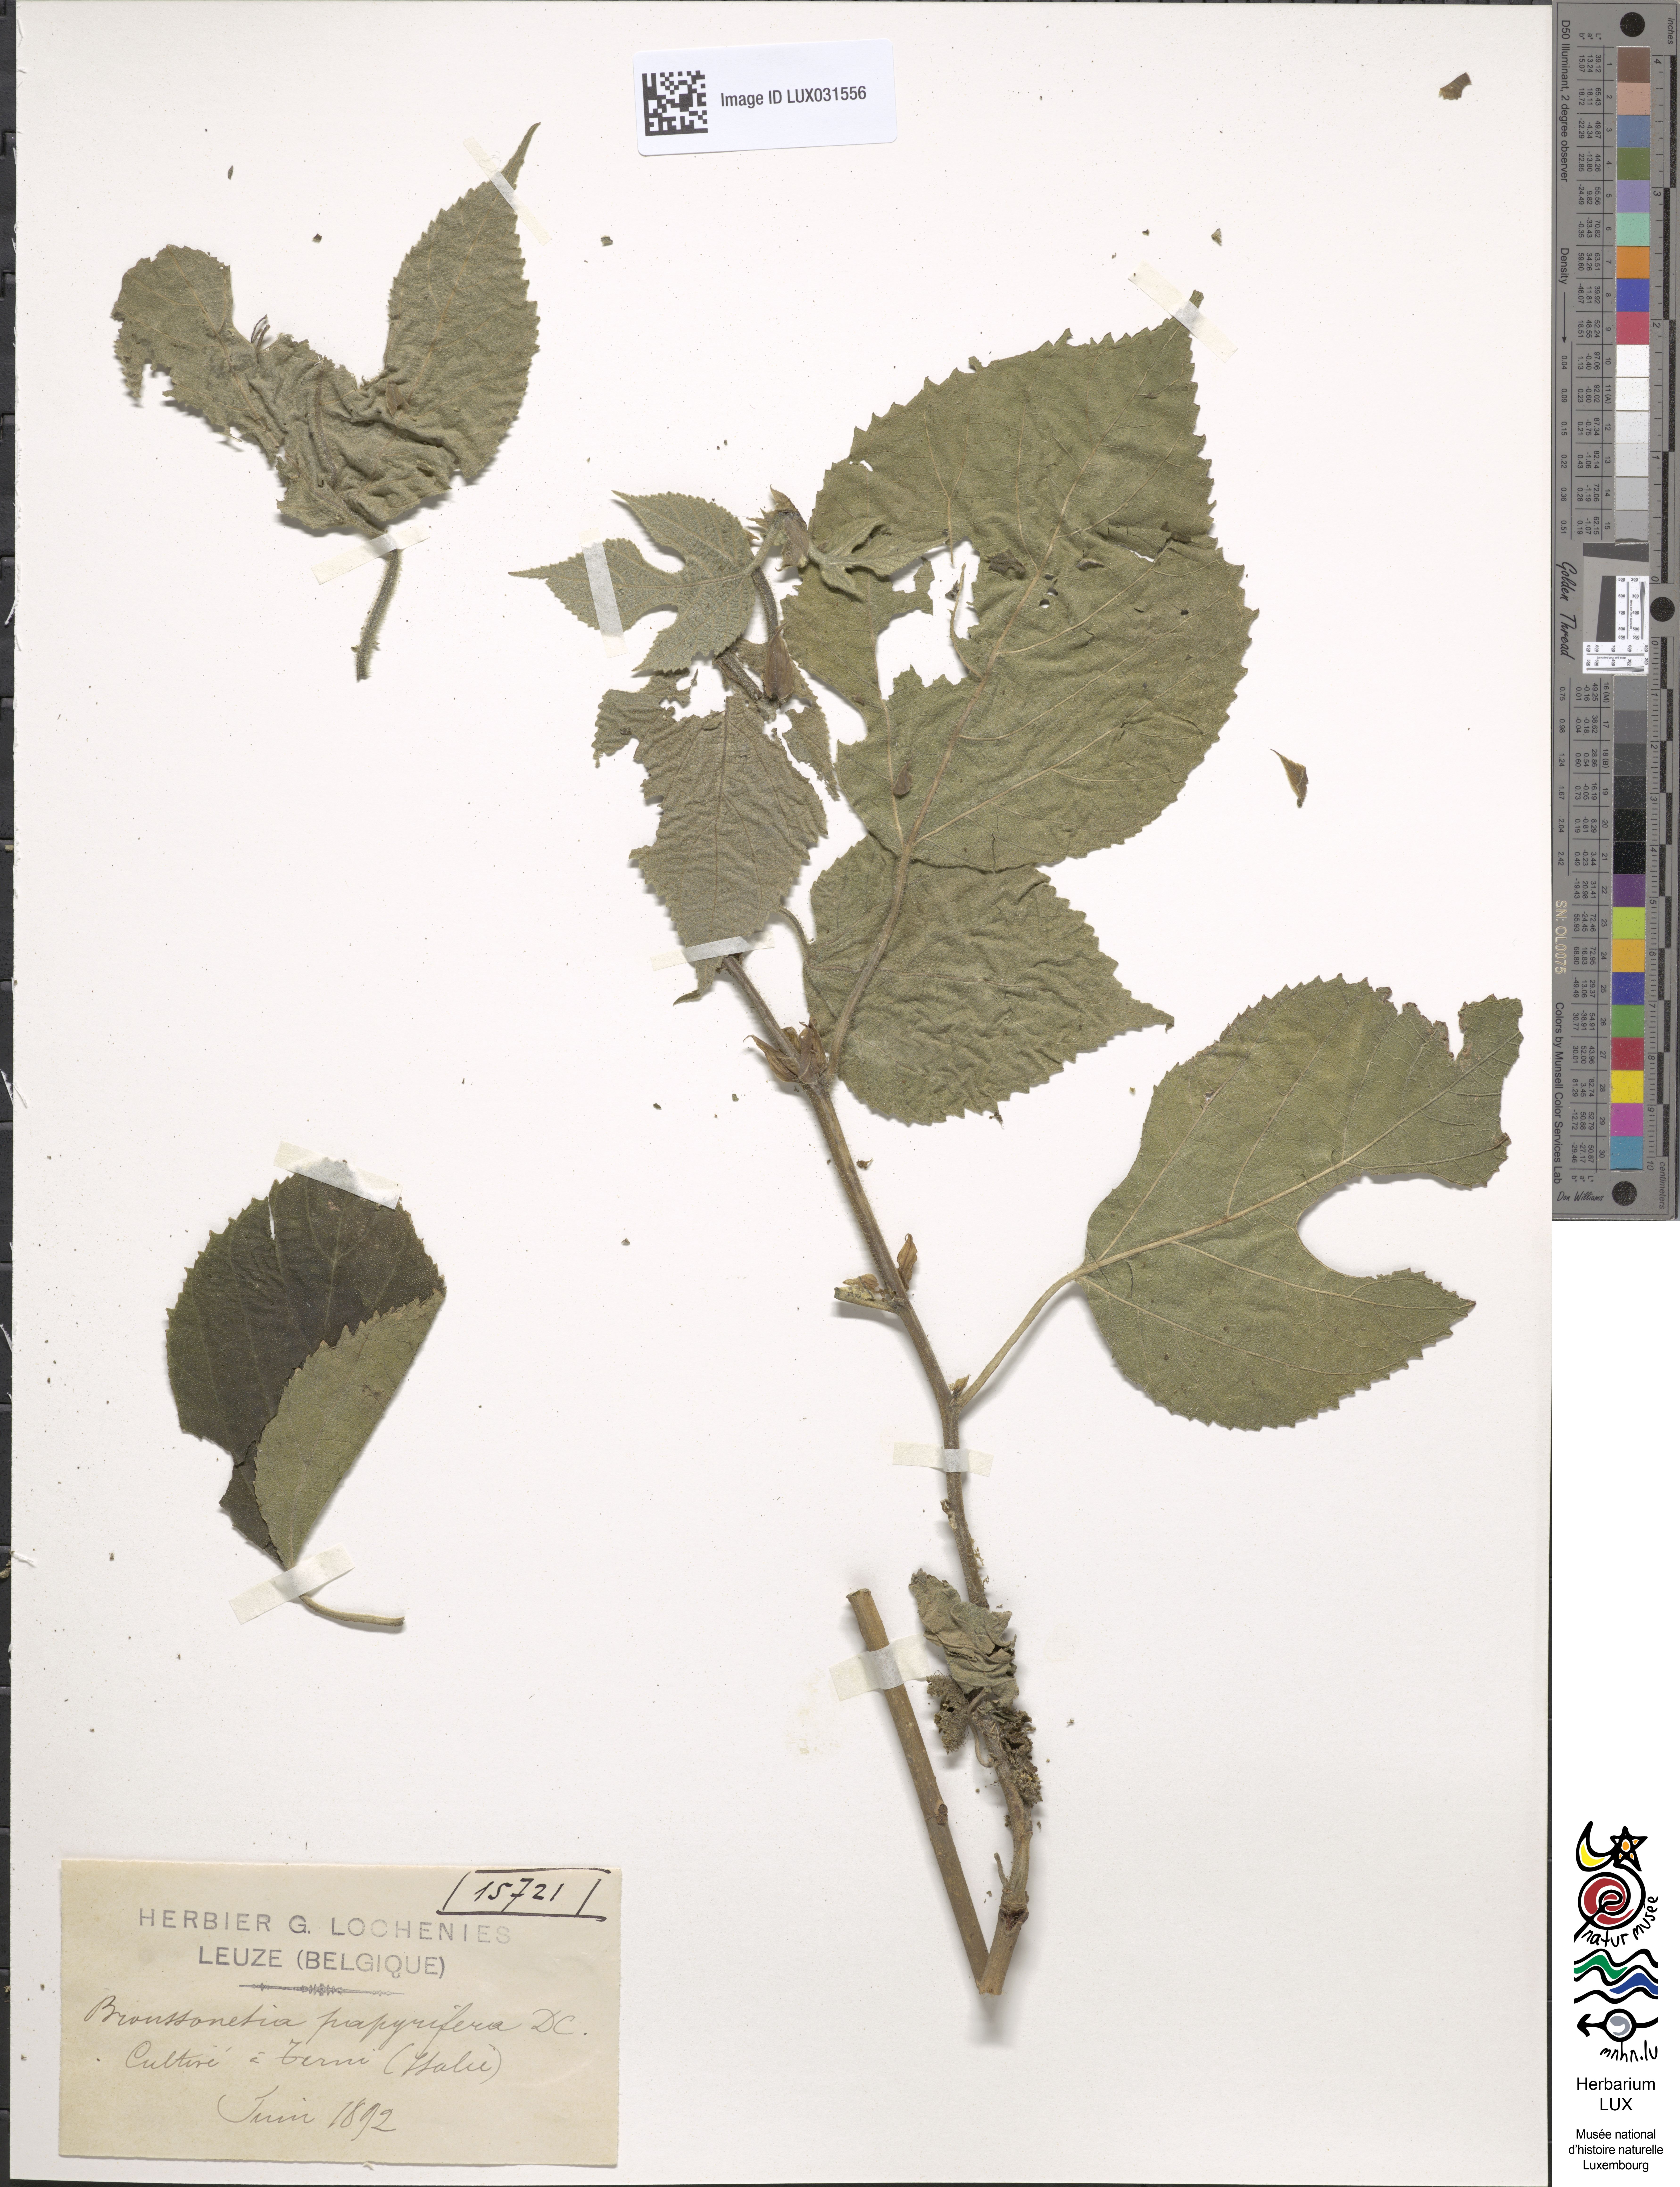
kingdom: Plantae
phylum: Tracheophyta
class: Magnoliopsida
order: Rosales
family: Moraceae
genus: Broussonetia
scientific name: Broussonetia papyrifera
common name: Paper mulberry
